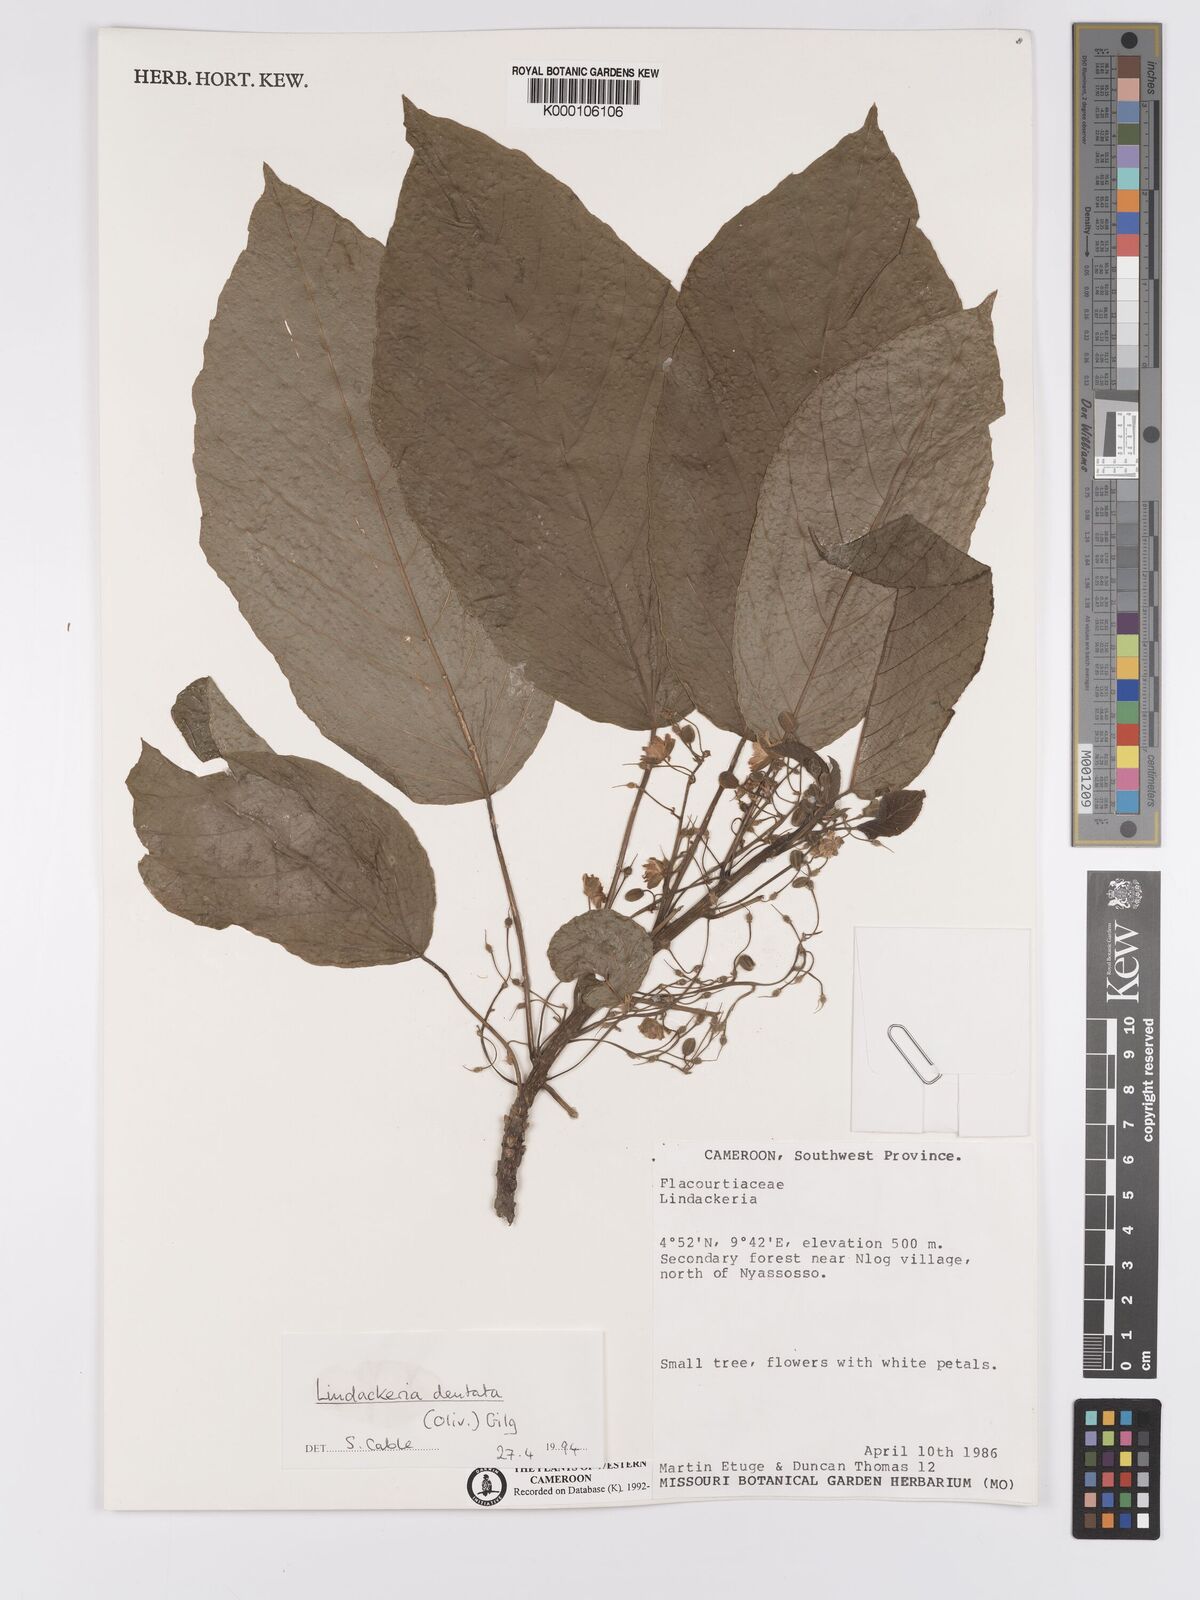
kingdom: Plantae
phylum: Tracheophyta
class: Magnoliopsida
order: Malpighiales
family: Achariaceae
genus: Lindackeria
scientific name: Lindackeria dentata
